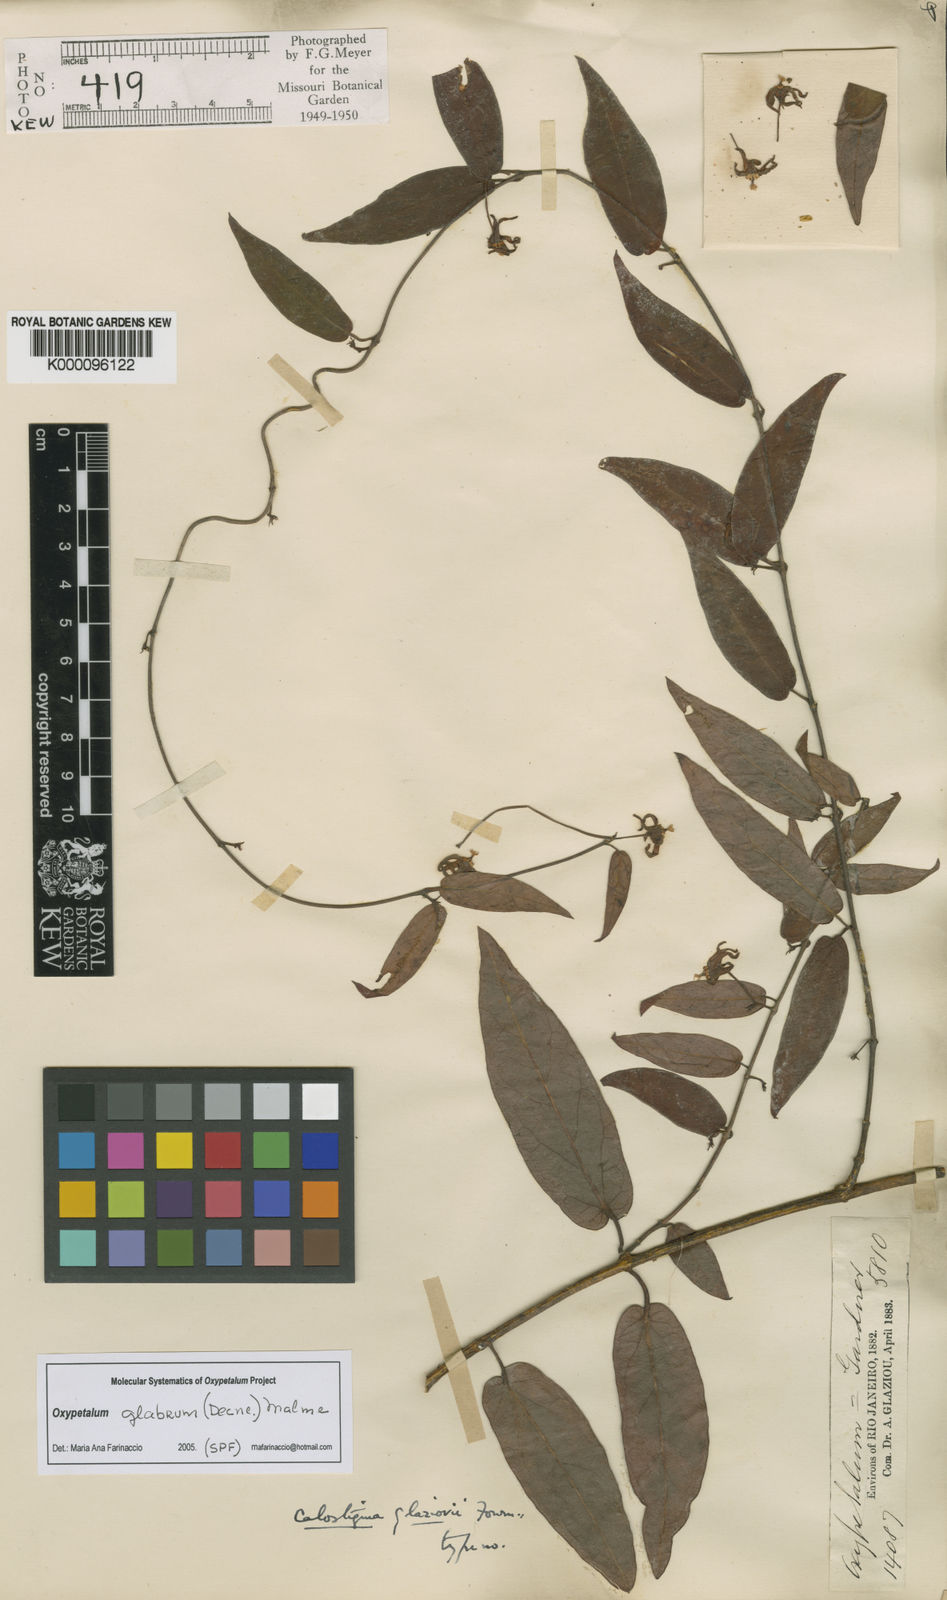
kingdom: Plantae
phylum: Tracheophyta
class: Magnoliopsida
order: Gentianales
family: Apocynaceae
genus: Oxypetalum
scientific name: Oxypetalum insigne
